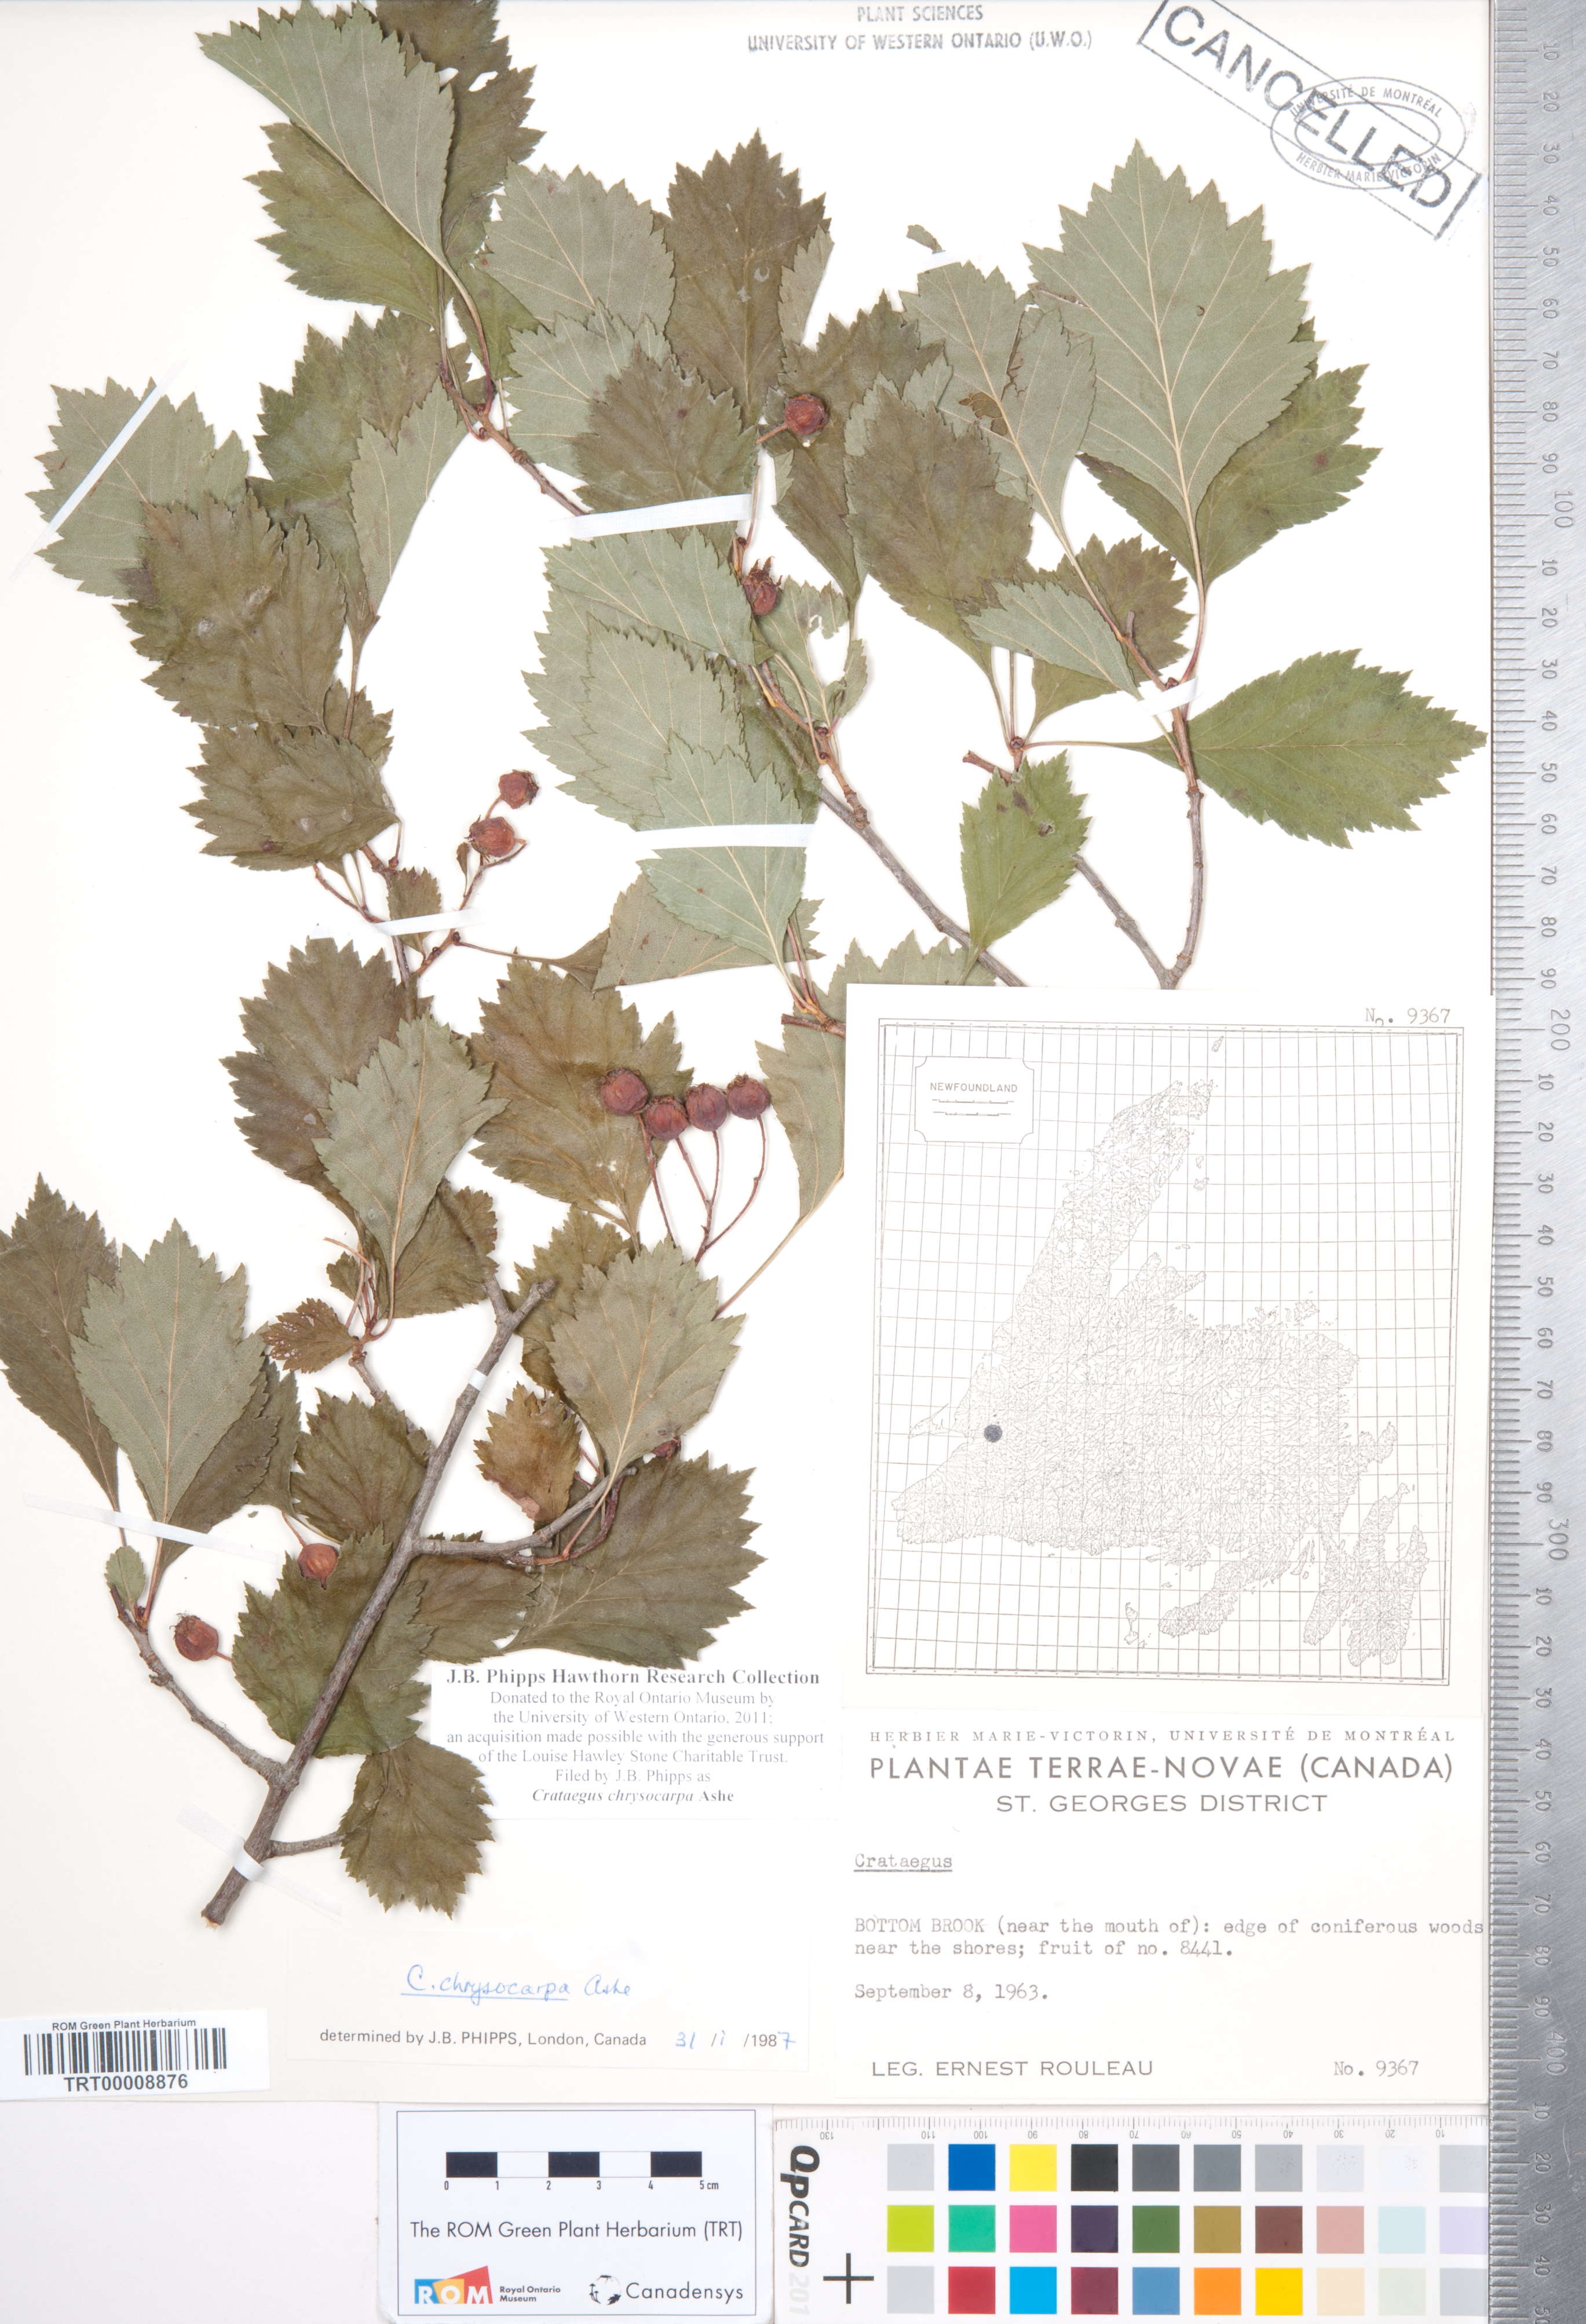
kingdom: Plantae
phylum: Tracheophyta
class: Magnoliopsida
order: Rosales
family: Rosaceae
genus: Crataegus
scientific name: Crataegus chrysocarpa
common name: Fire-berry hawthorn
